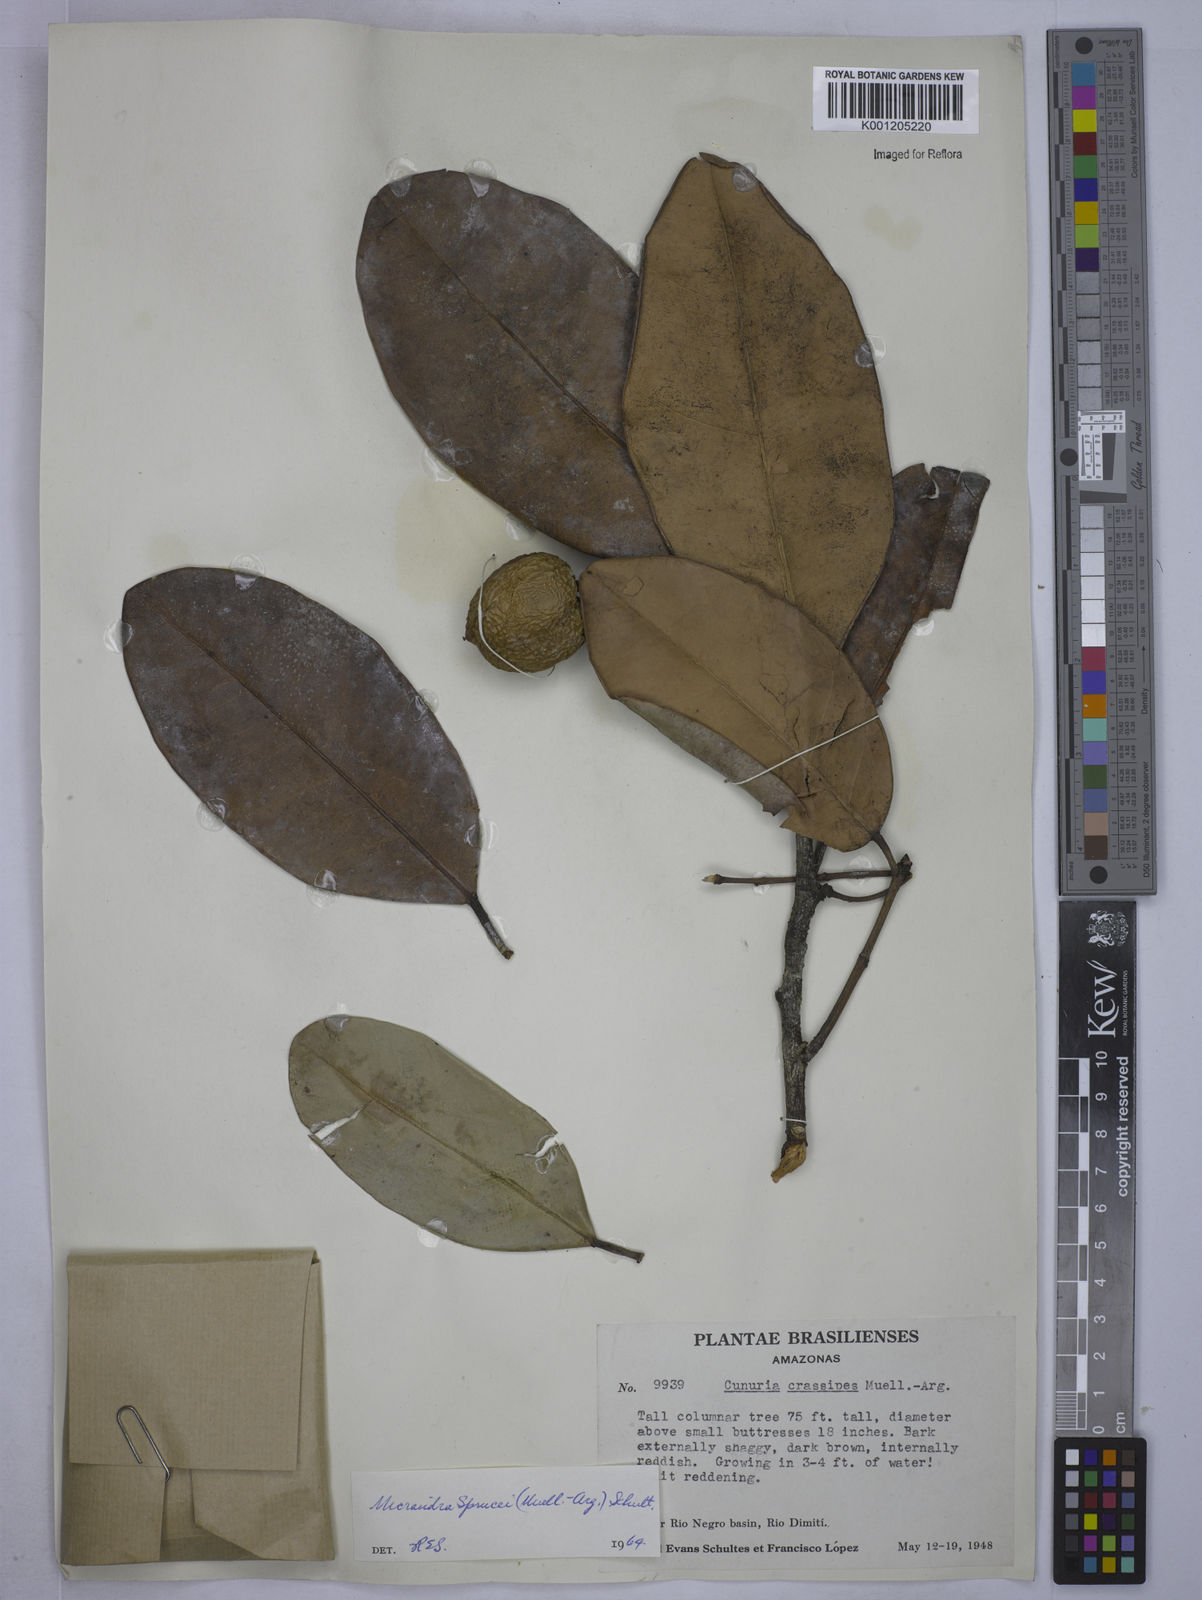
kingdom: Plantae
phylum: Tracheophyta
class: Magnoliopsida
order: Malpighiales
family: Euphorbiaceae
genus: Micrandra
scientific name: Micrandra
